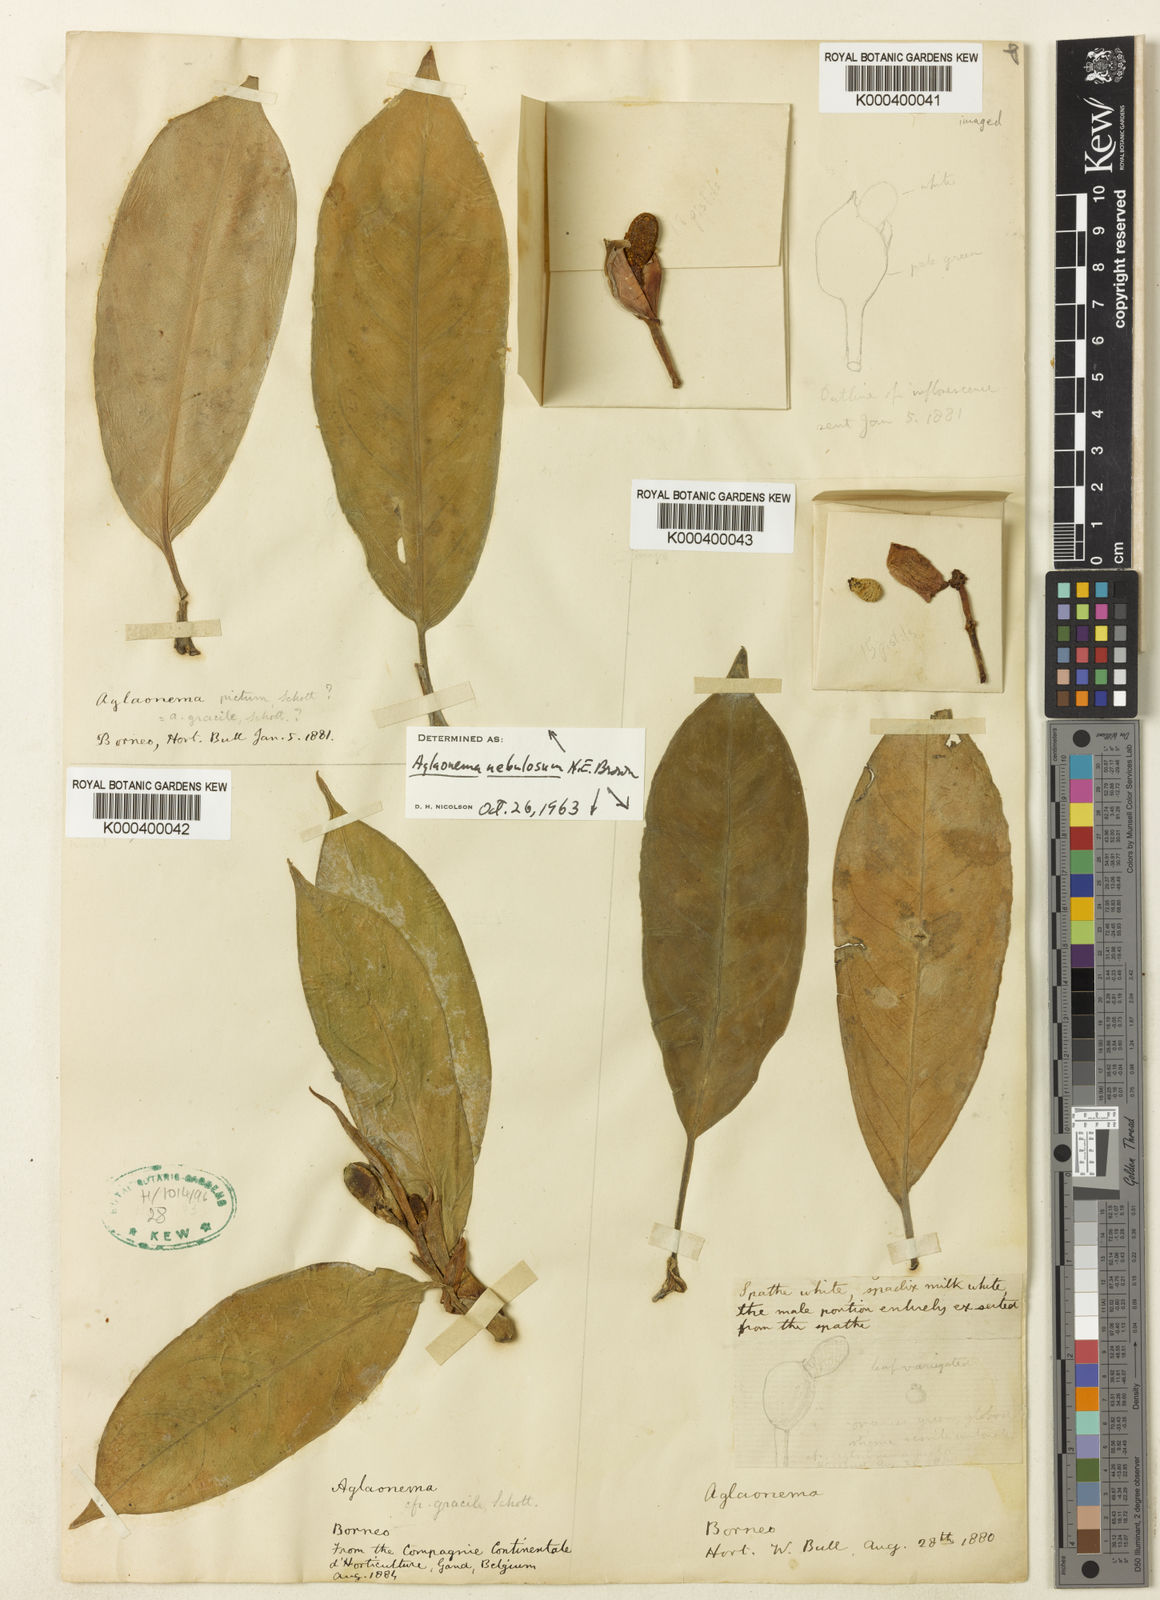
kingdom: Plantae
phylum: Tracheophyta
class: Liliopsida
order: Alismatales
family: Araceae
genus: Aglaonema
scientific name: Aglaonema nebulosum
